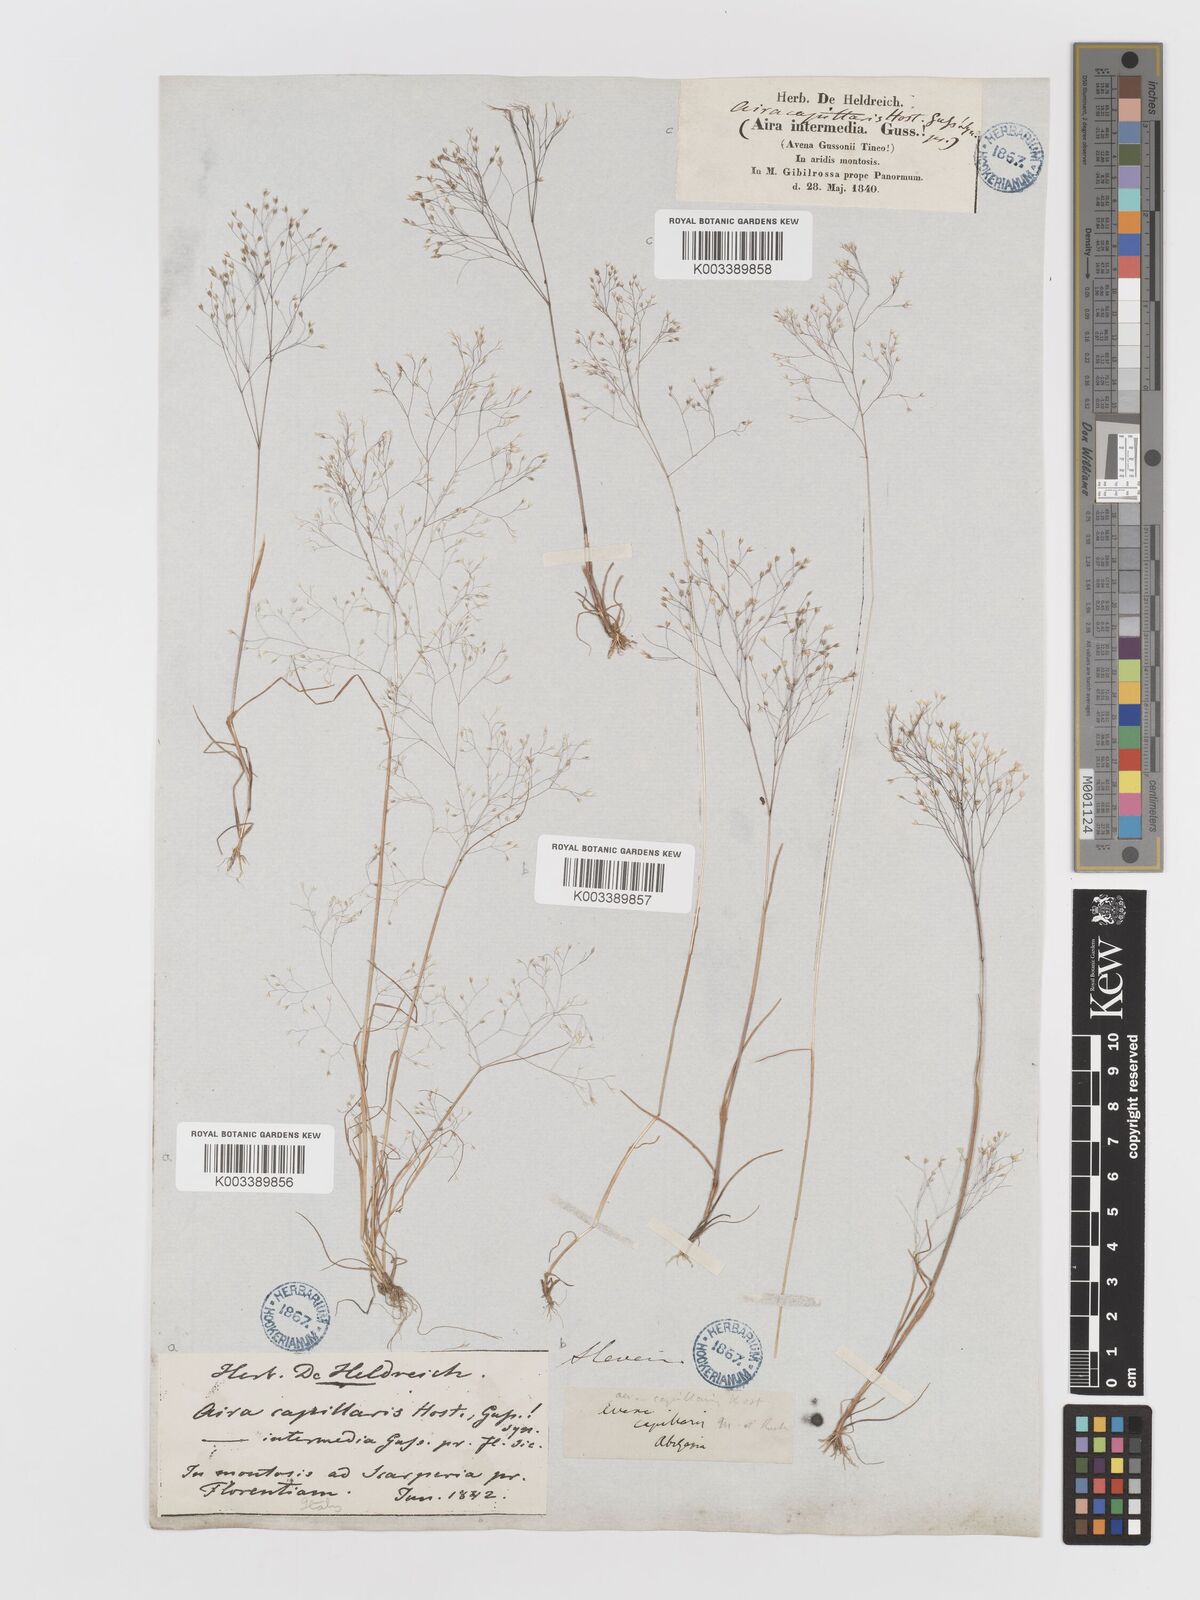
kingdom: Plantae
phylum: Tracheophyta
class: Liliopsida
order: Poales
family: Poaceae
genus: Aira
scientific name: Aira elegans
